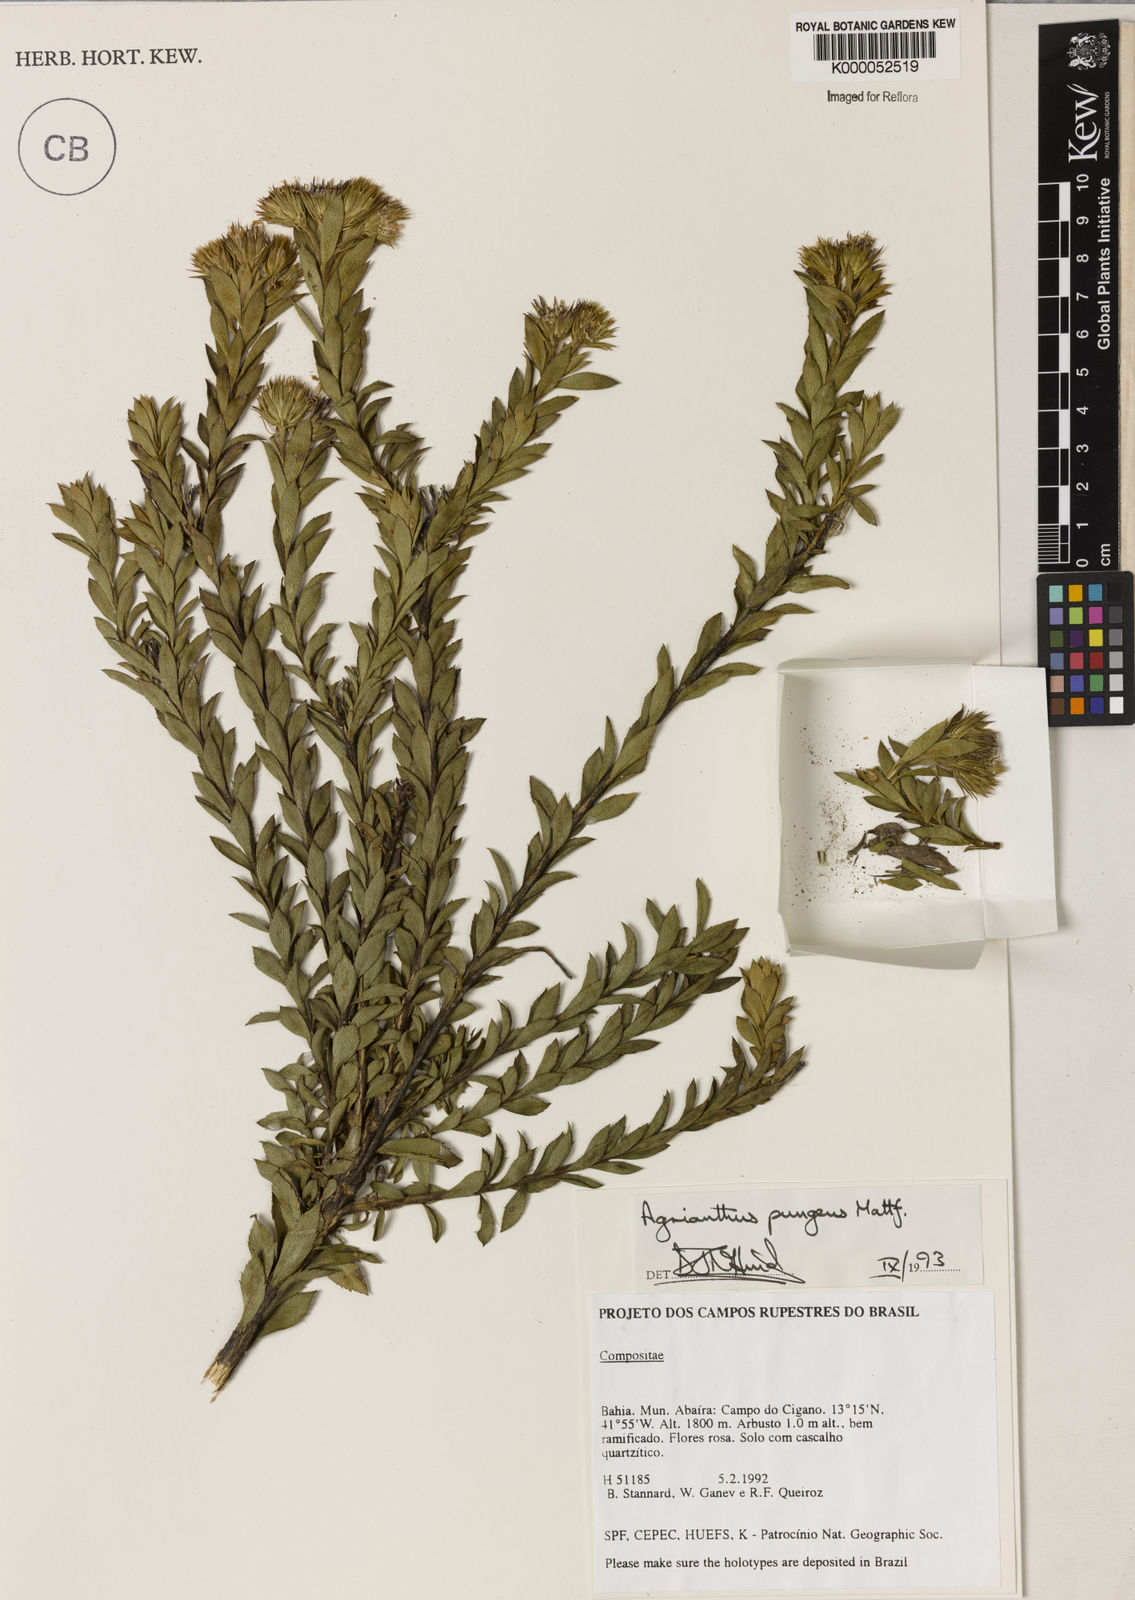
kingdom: Plantae
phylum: Tracheophyta
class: Magnoliopsida
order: Asterales
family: Asteraceae
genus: Agrianthus
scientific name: Agrianthus pungens
